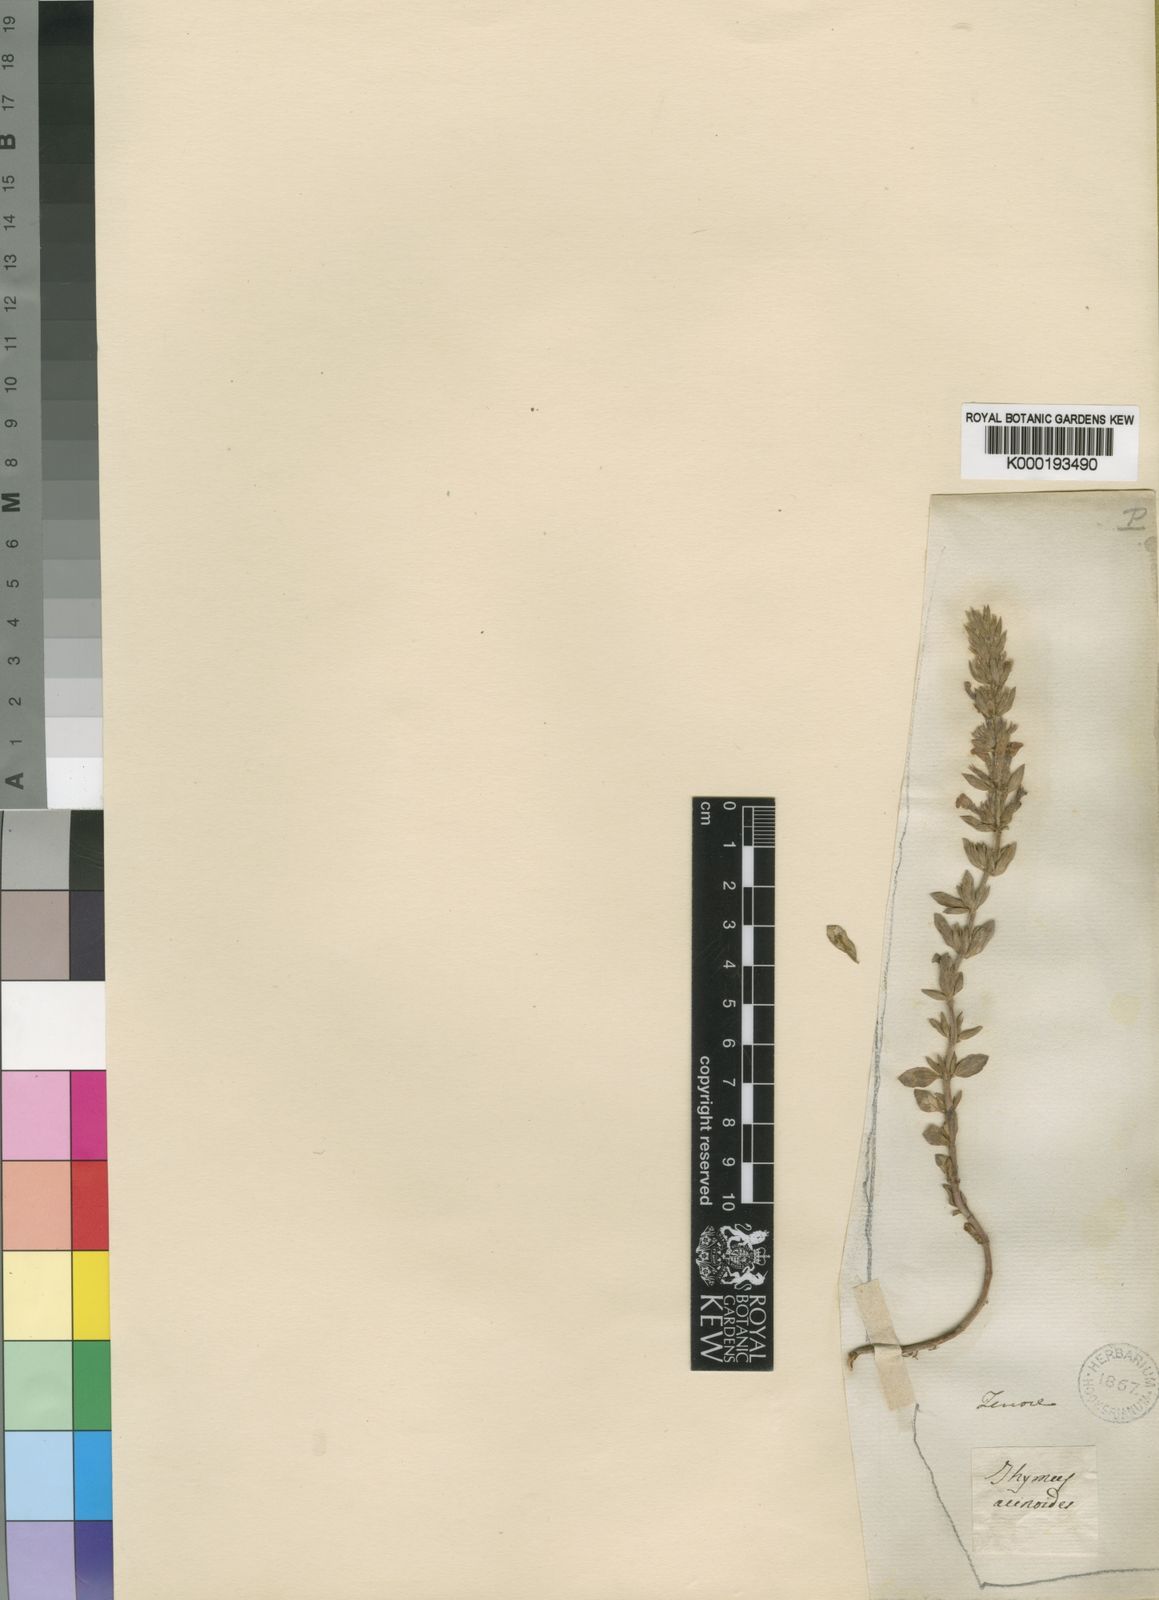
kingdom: Plantae
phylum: Tracheophyta
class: Magnoliopsida
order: Lamiales
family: Lamiaceae
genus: Clinopodium
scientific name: Clinopodium suaveolens
